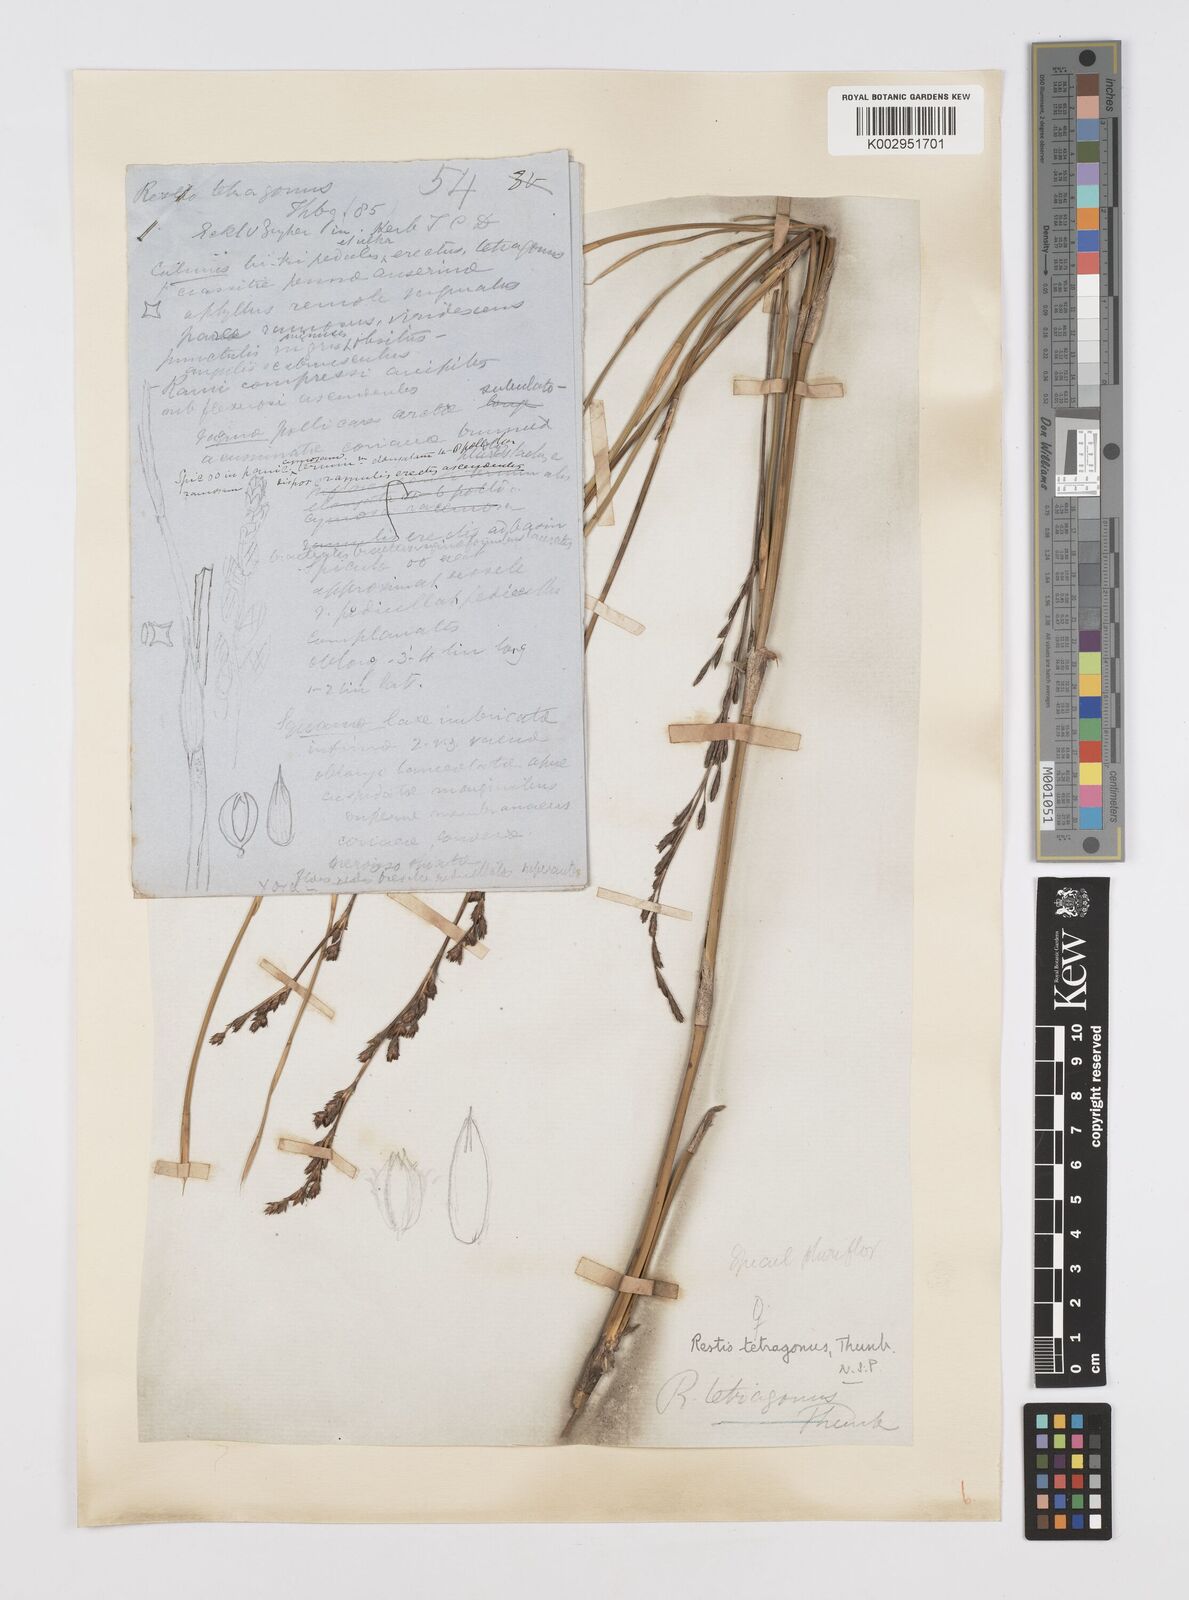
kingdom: Plantae
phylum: Tracheophyta
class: Liliopsida
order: Poales
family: Restionaceae
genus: Restio
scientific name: Restio tetragonus
